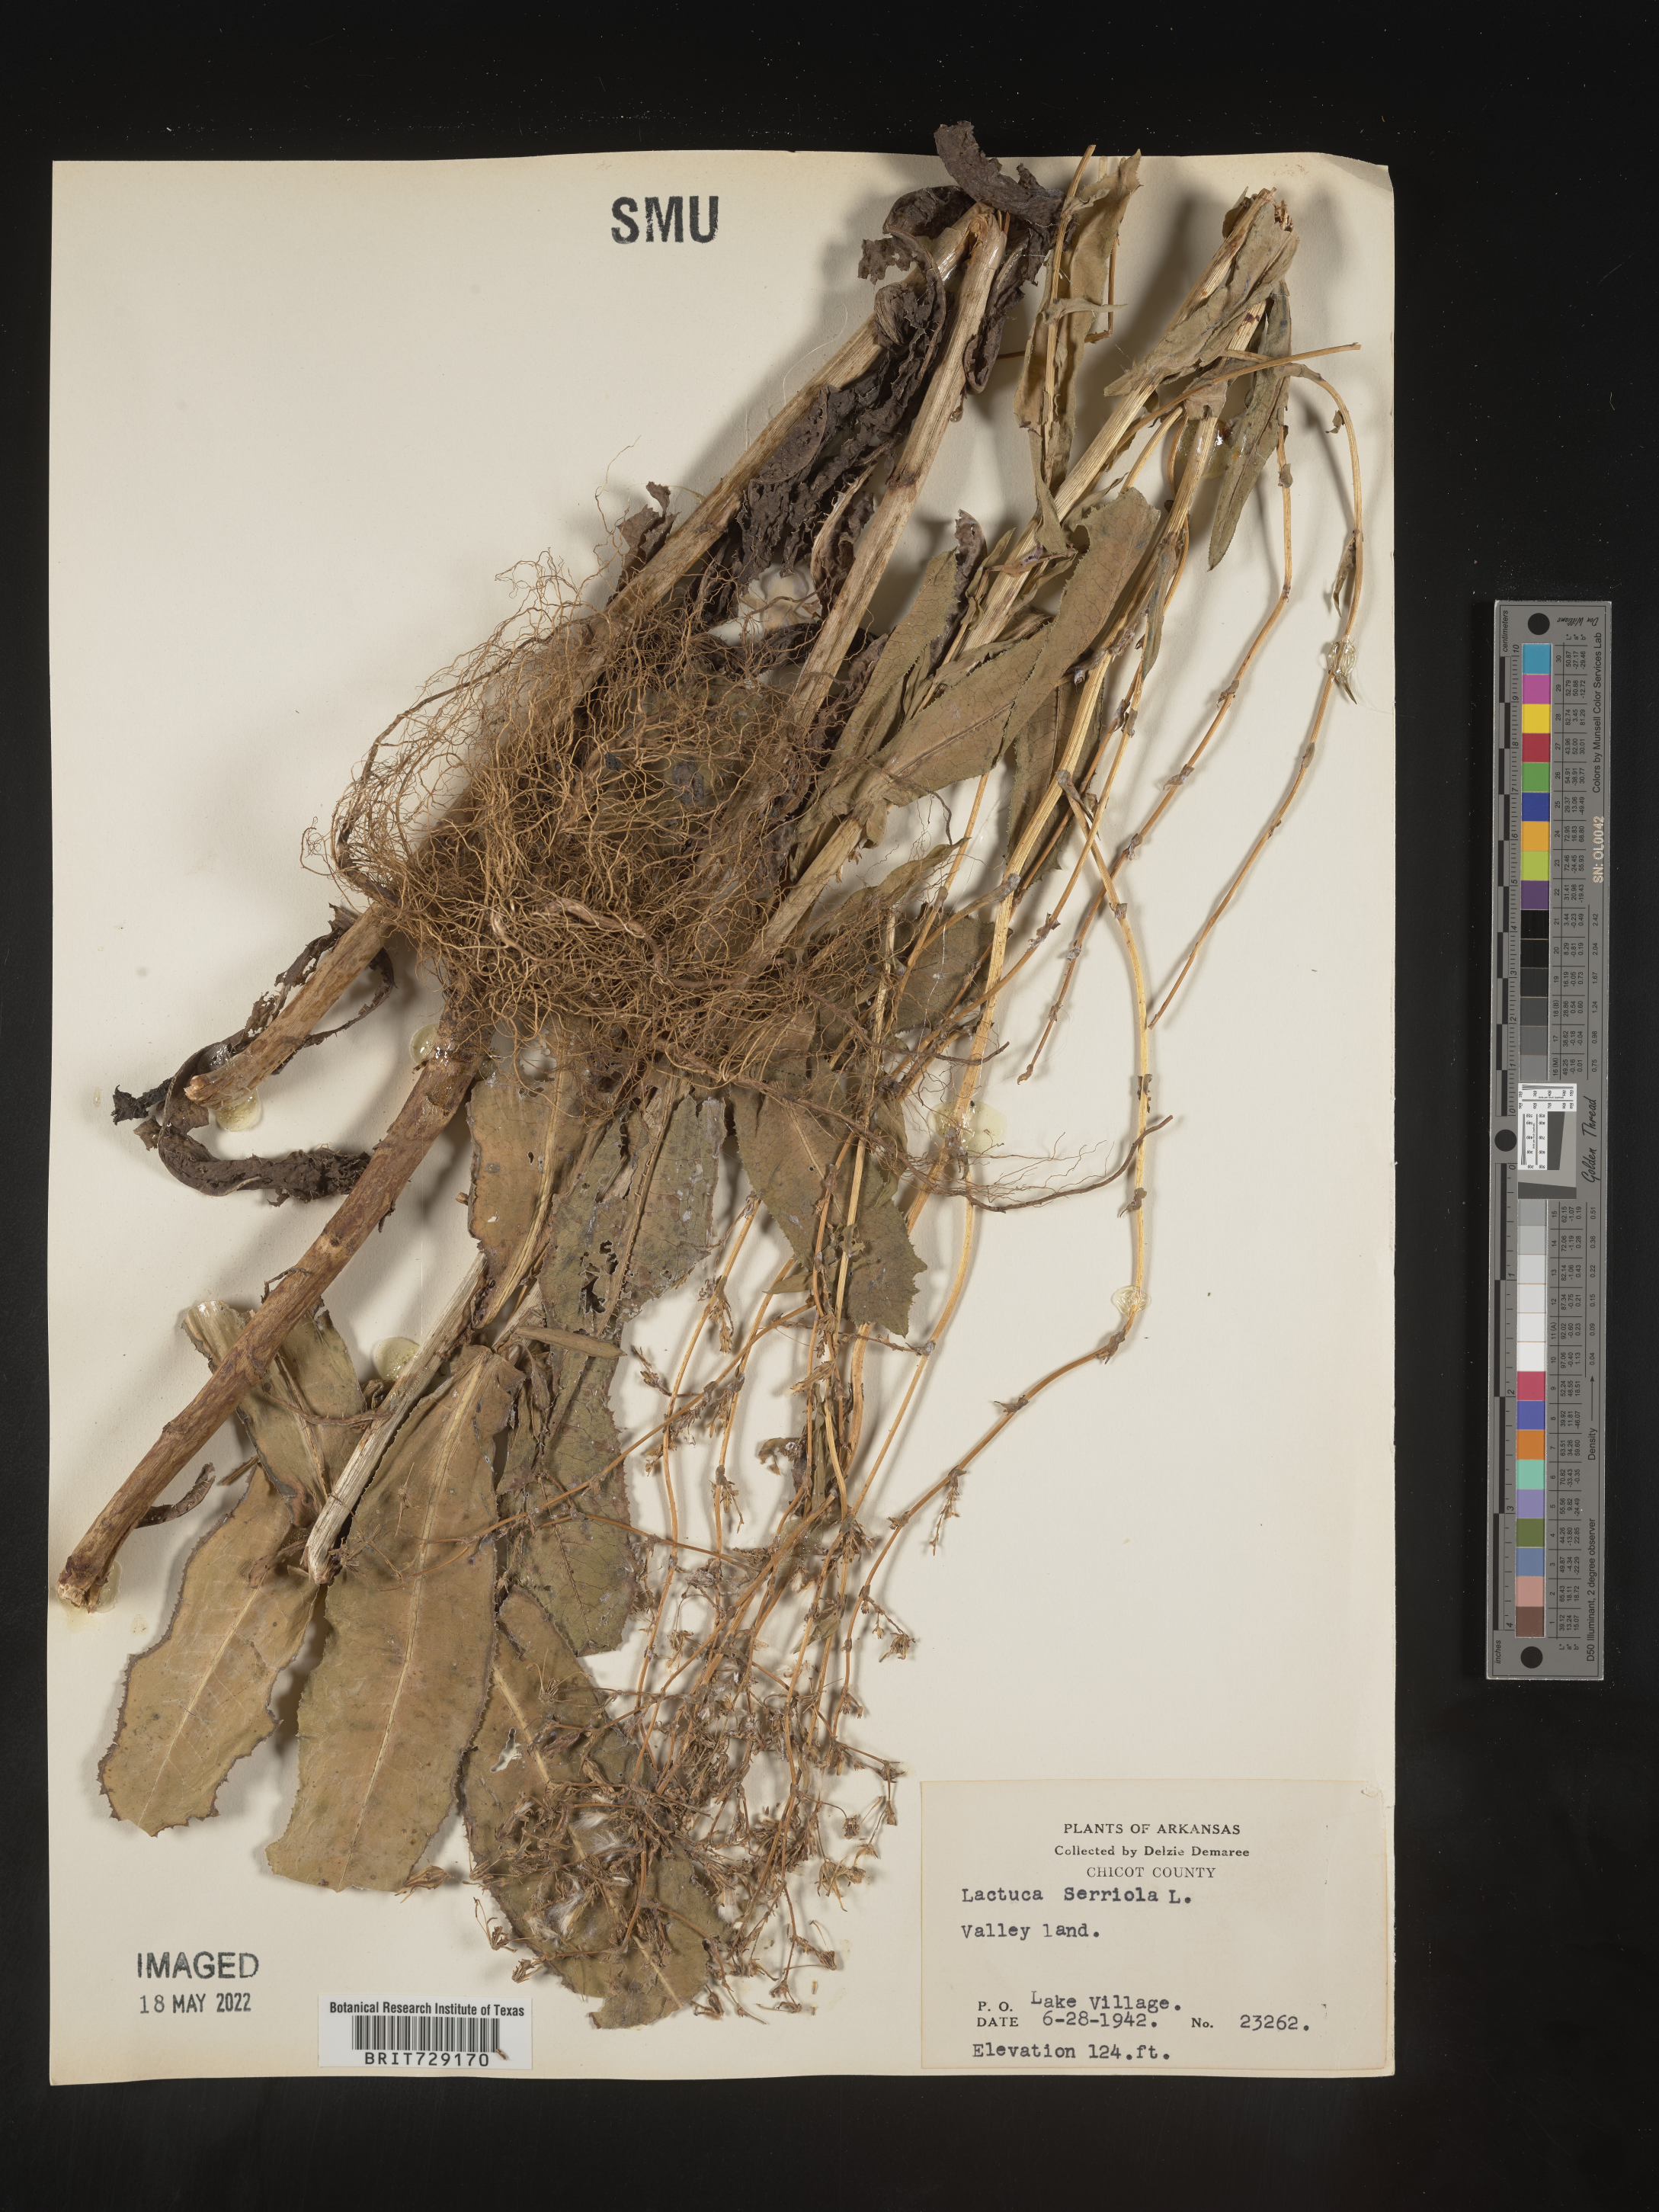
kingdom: Plantae
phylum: Tracheophyta
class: Magnoliopsida
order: Asterales
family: Asteraceae
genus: Lactuca
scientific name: Lactuca serriola
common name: Prickly lettuce
